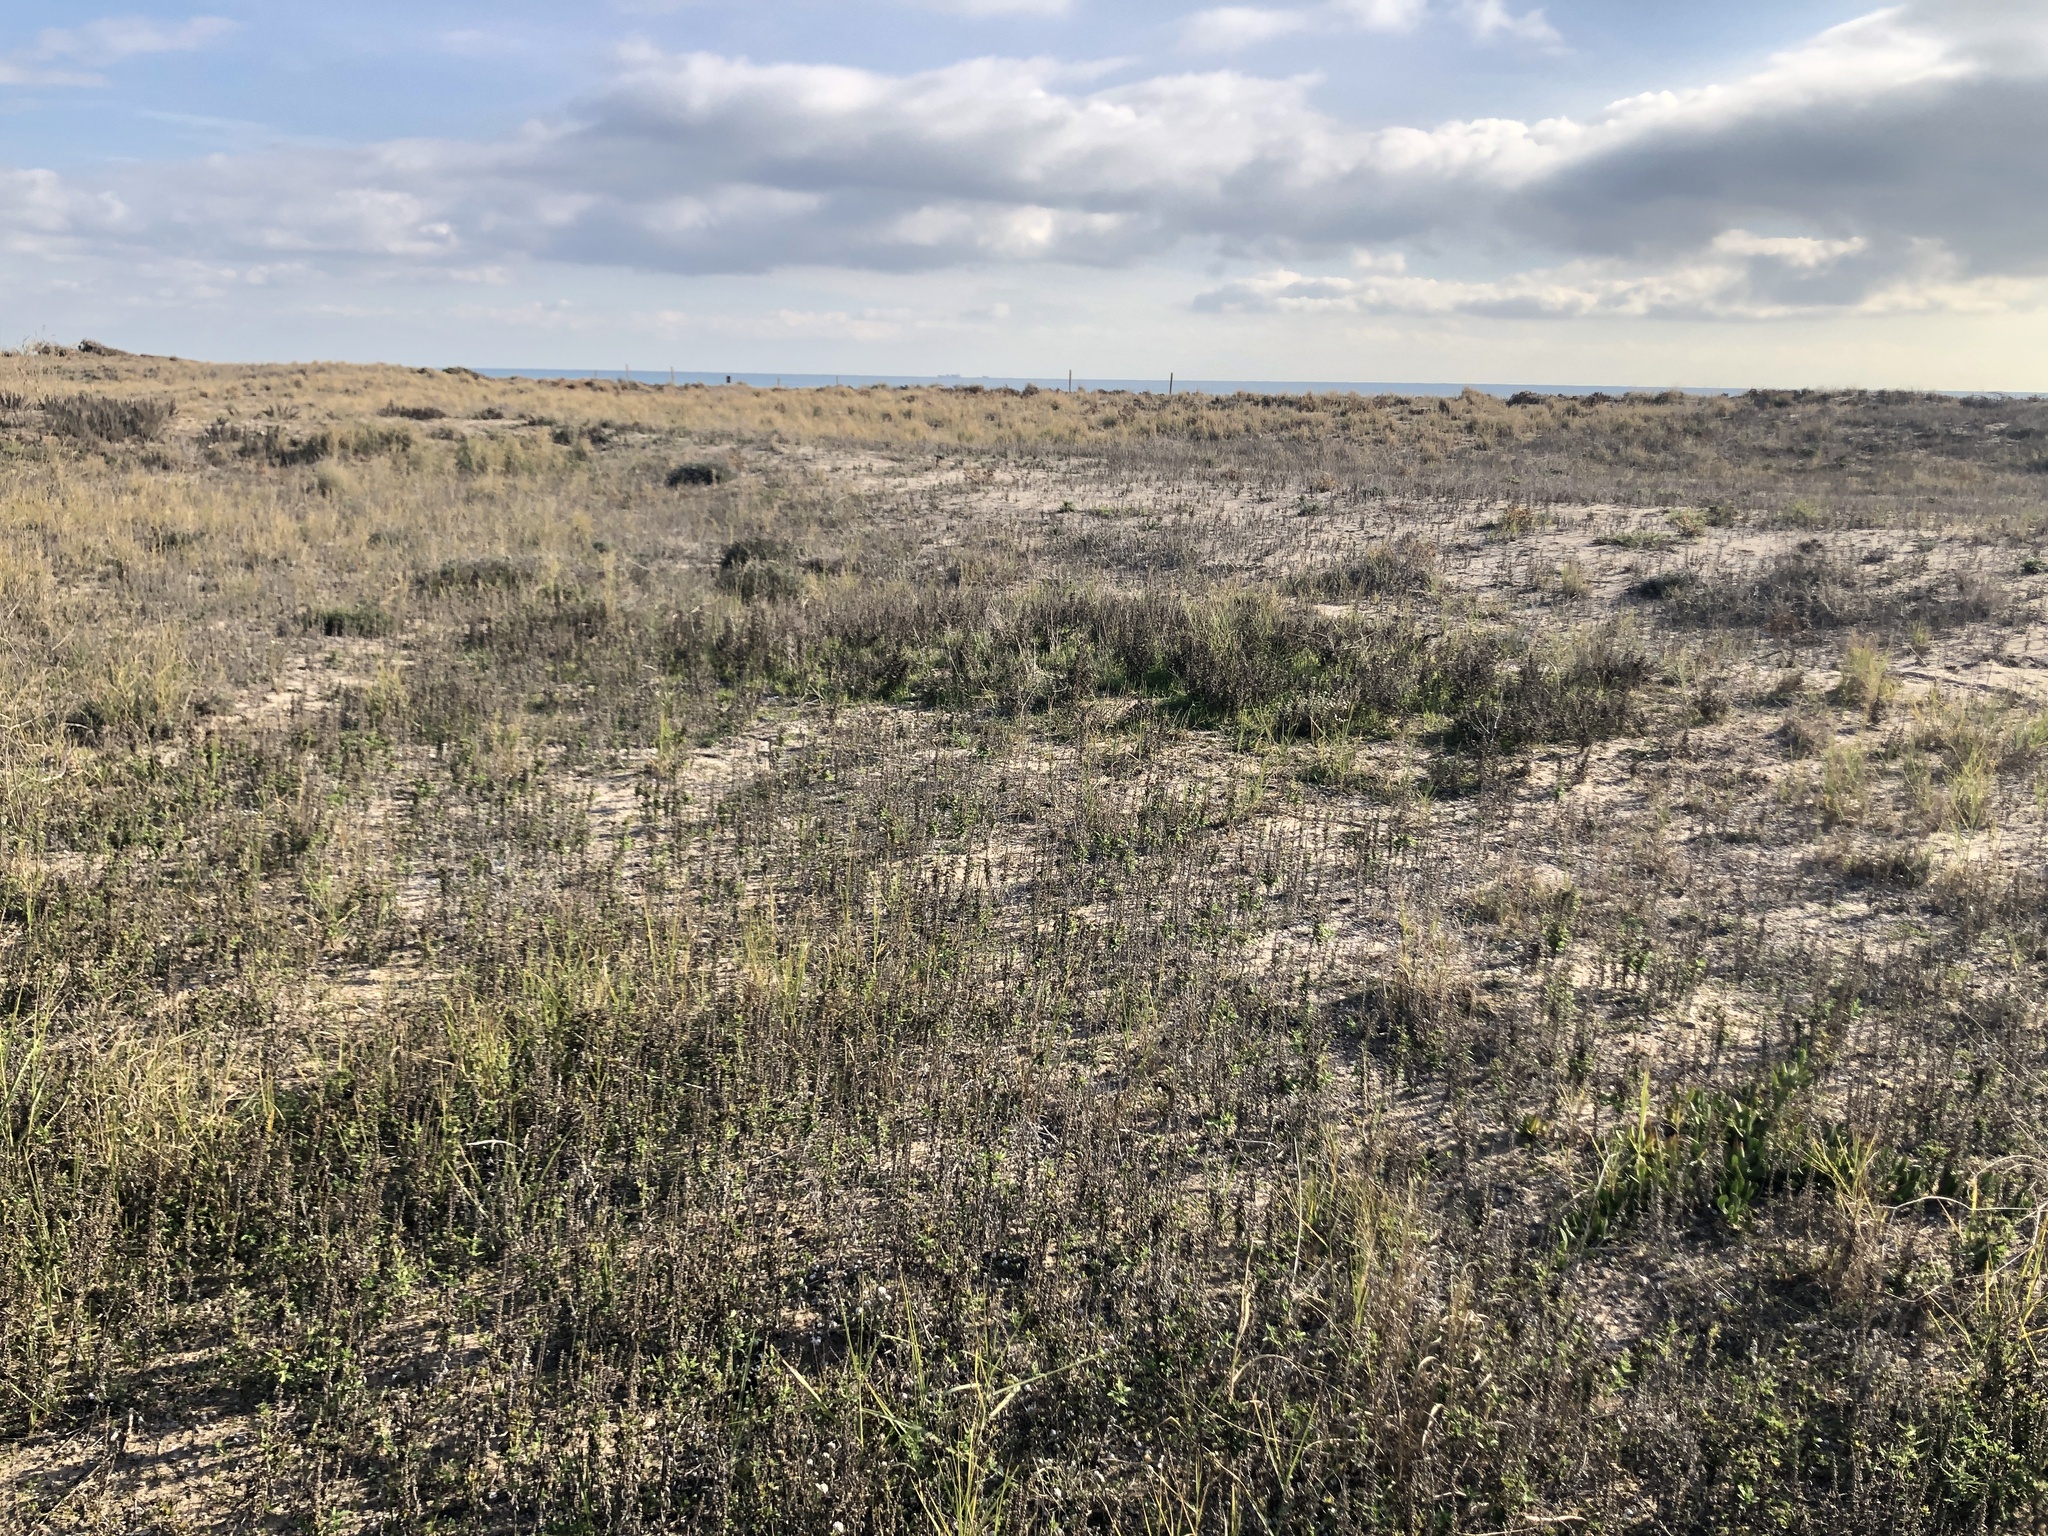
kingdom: Plantae
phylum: Tracheophyta
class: Magnoliopsida
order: Asterales
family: Asteraceae
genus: Ambrosia
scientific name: Ambrosia psilostachya
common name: Perennial ragweed
